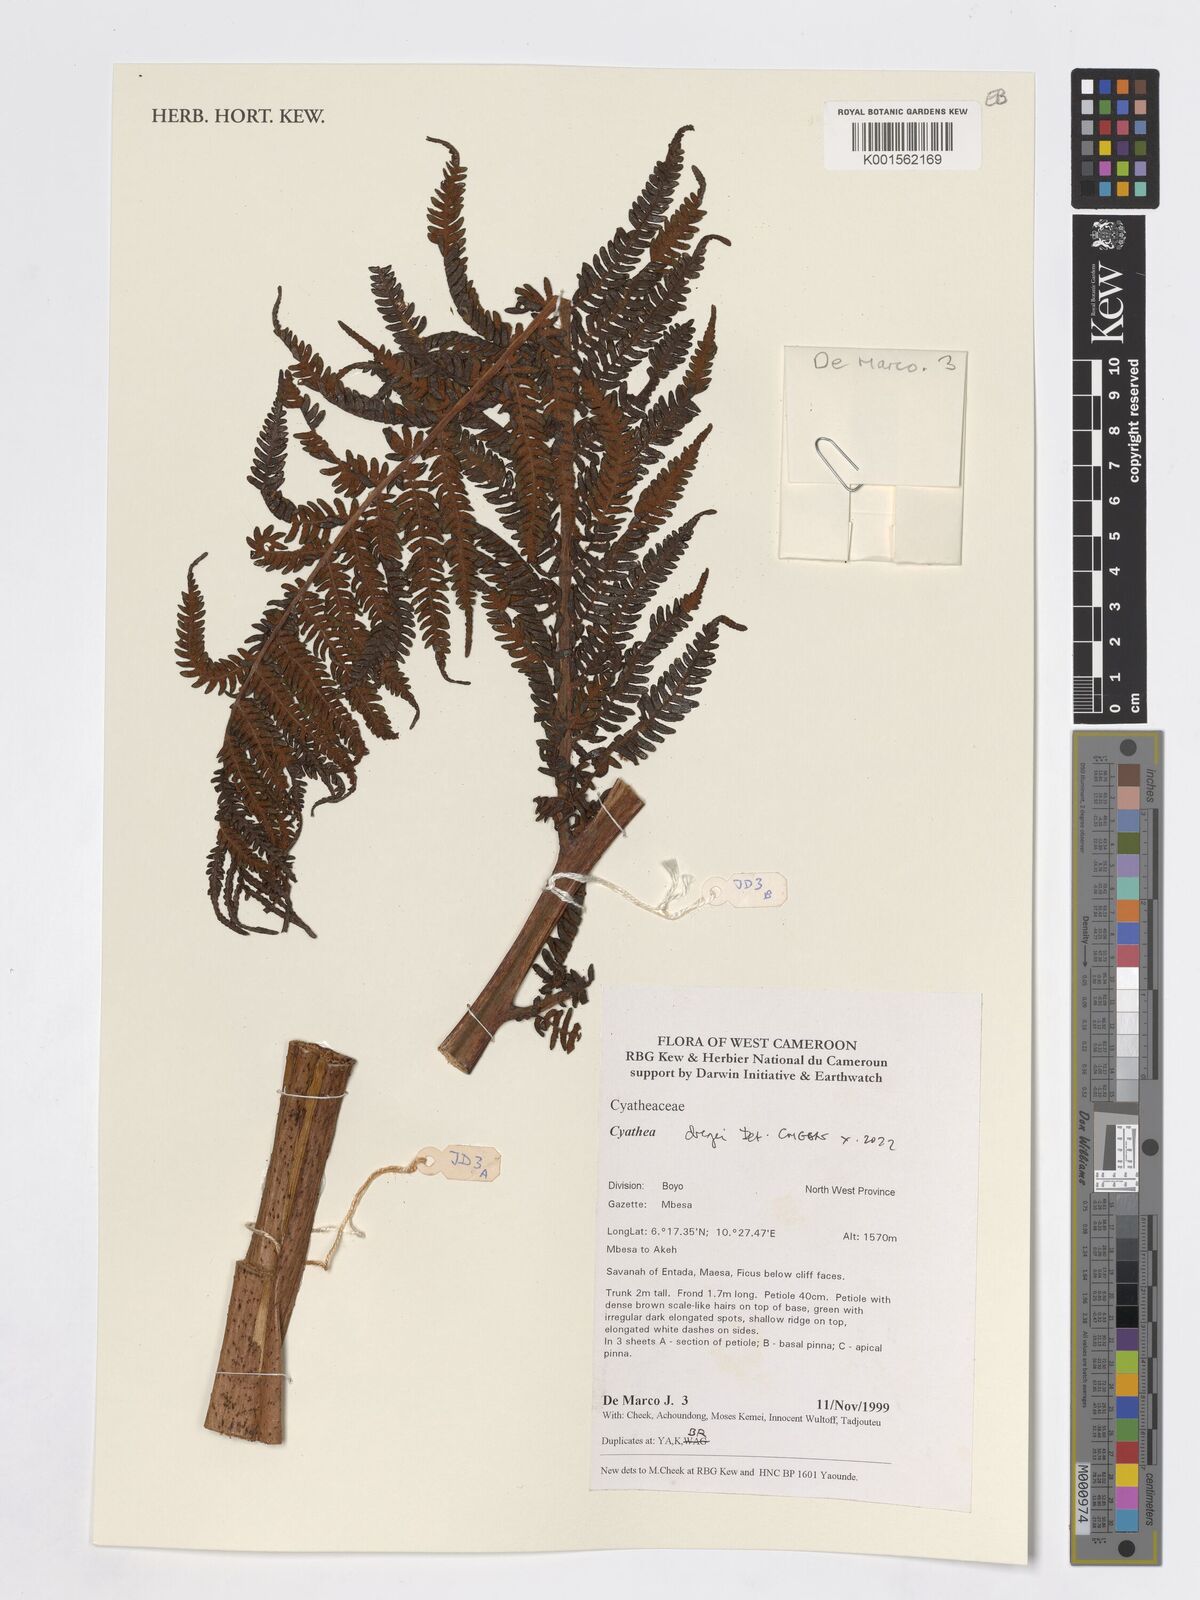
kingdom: Plantae
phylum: Tracheophyta
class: Polypodiopsida
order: Cyatheales
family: Cyatheaceae
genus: Alsophila
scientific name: Alsophila dregei
